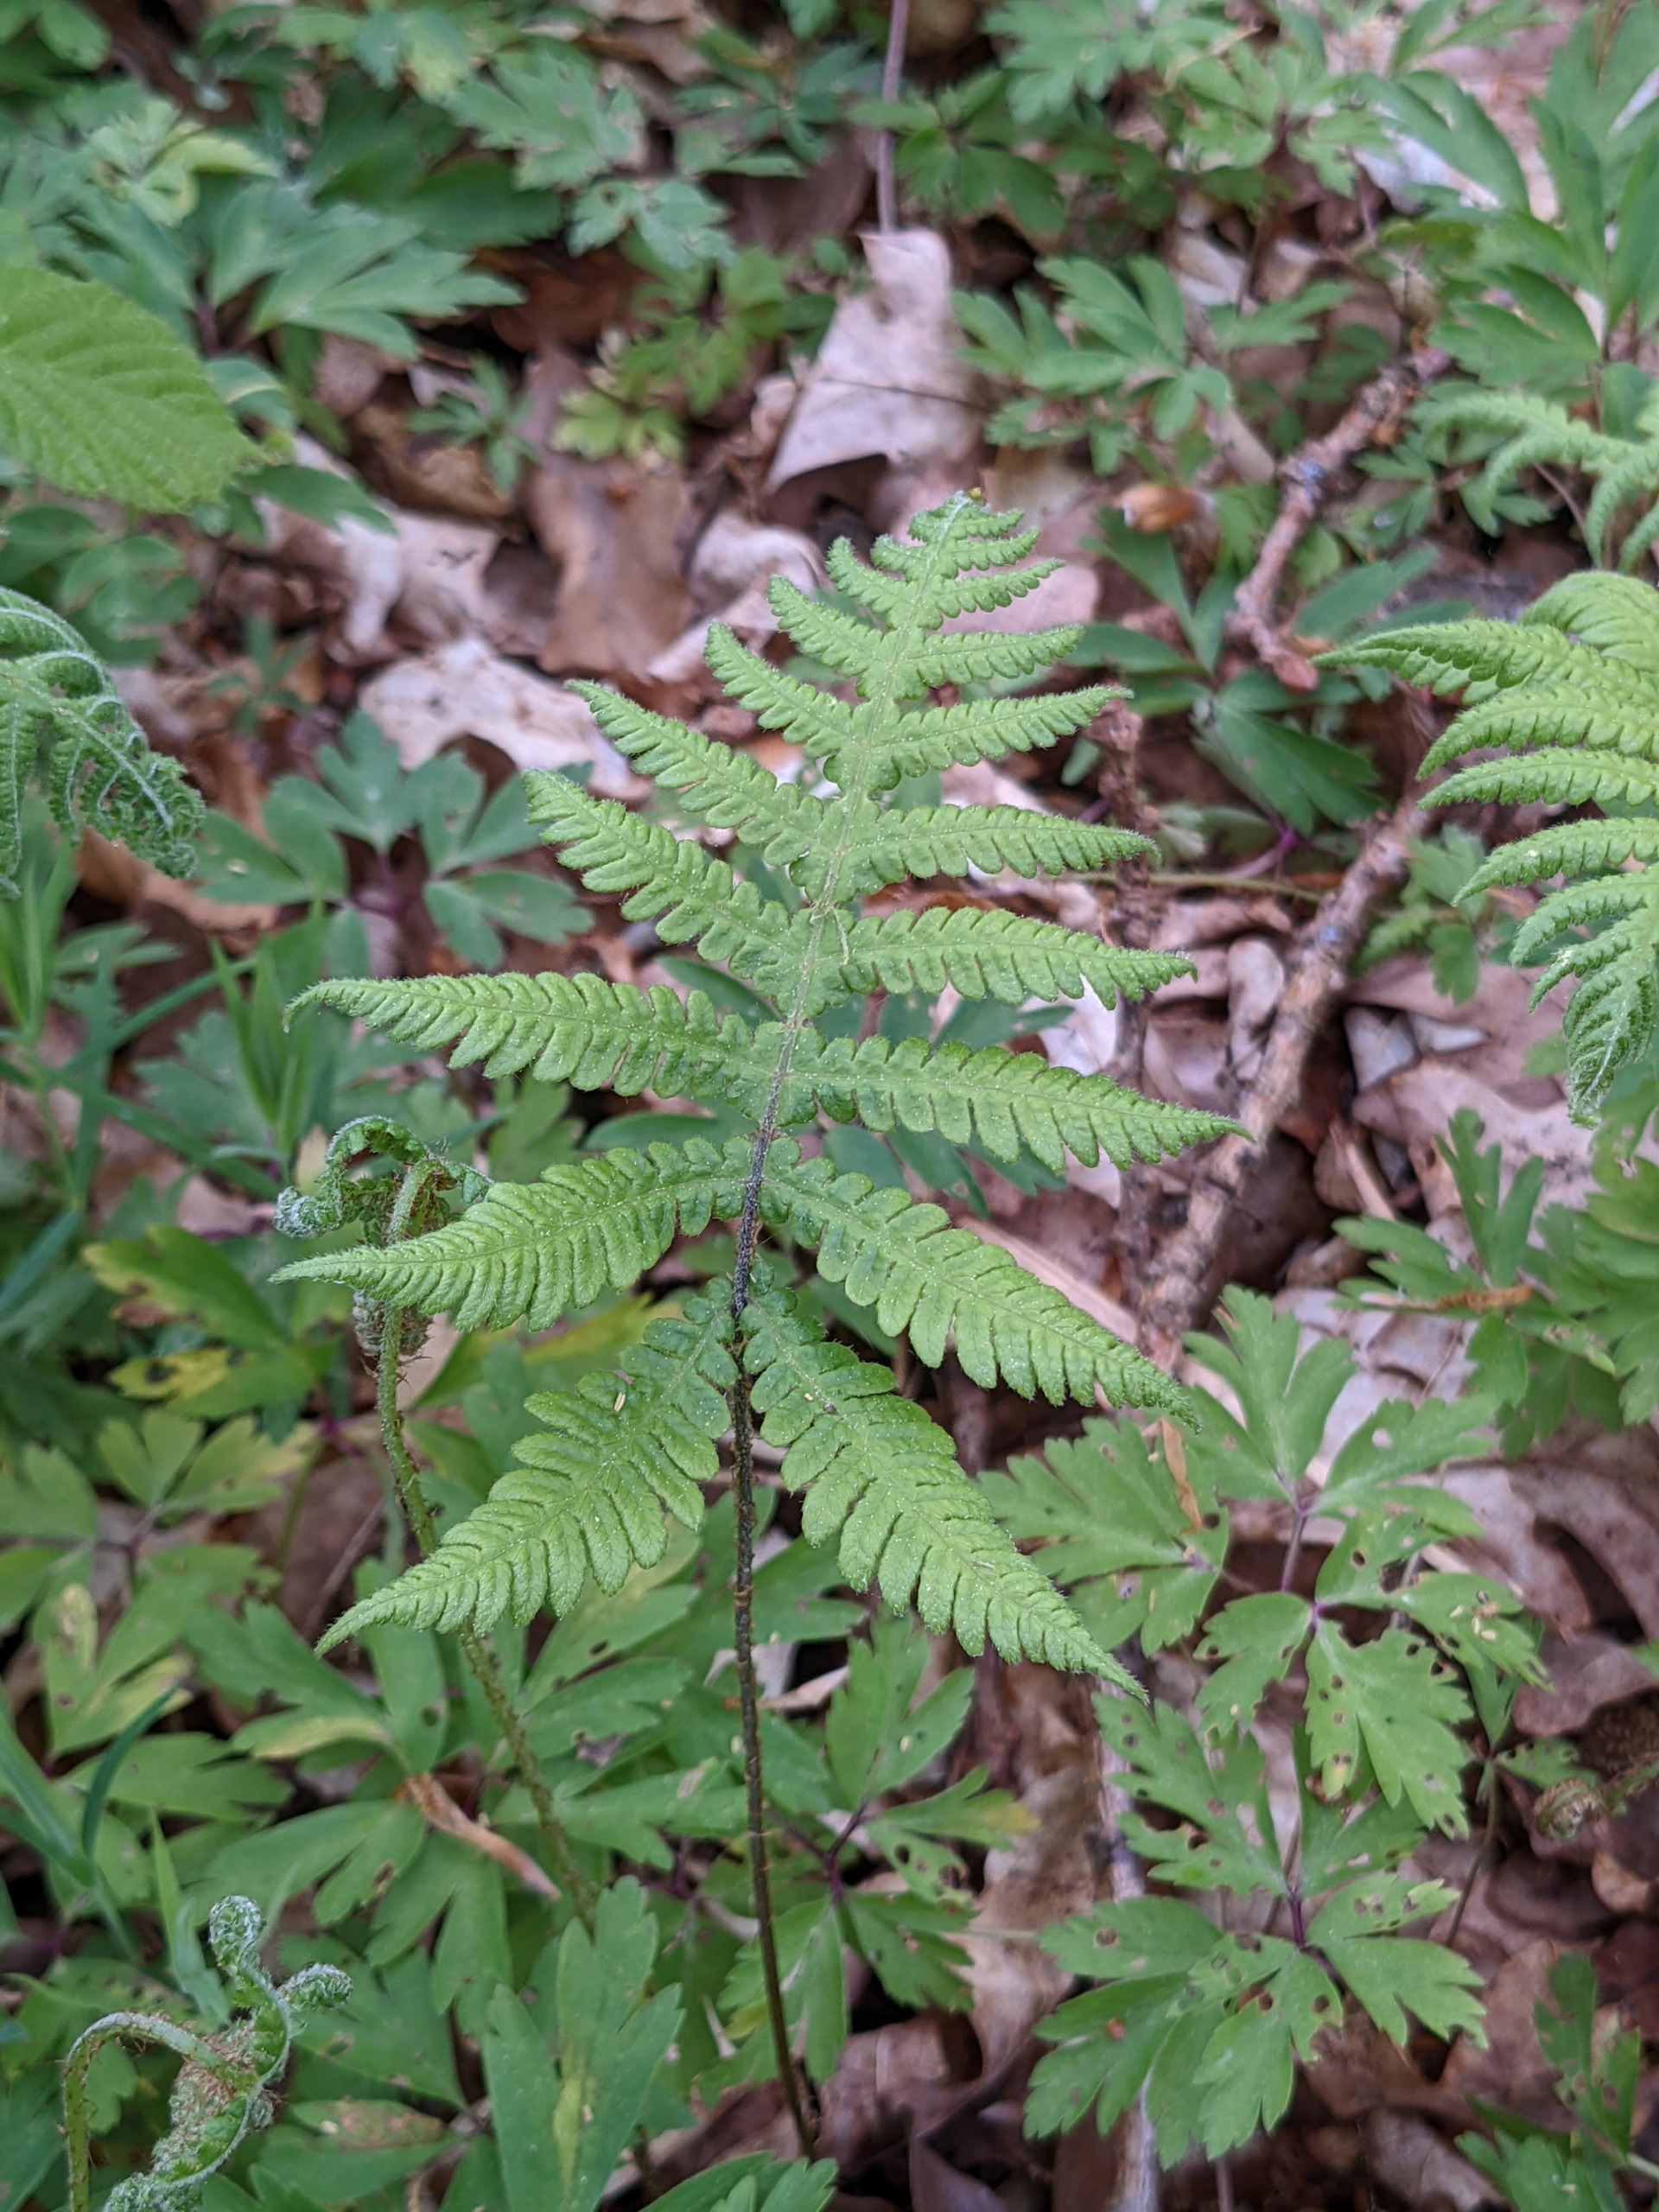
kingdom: Plantae
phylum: Tracheophyta
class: Polypodiopsida
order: Polypodiales
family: Thelypteridaceae
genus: Phegopteris
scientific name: Phegopteris connectilis
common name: Dunet egebregne
